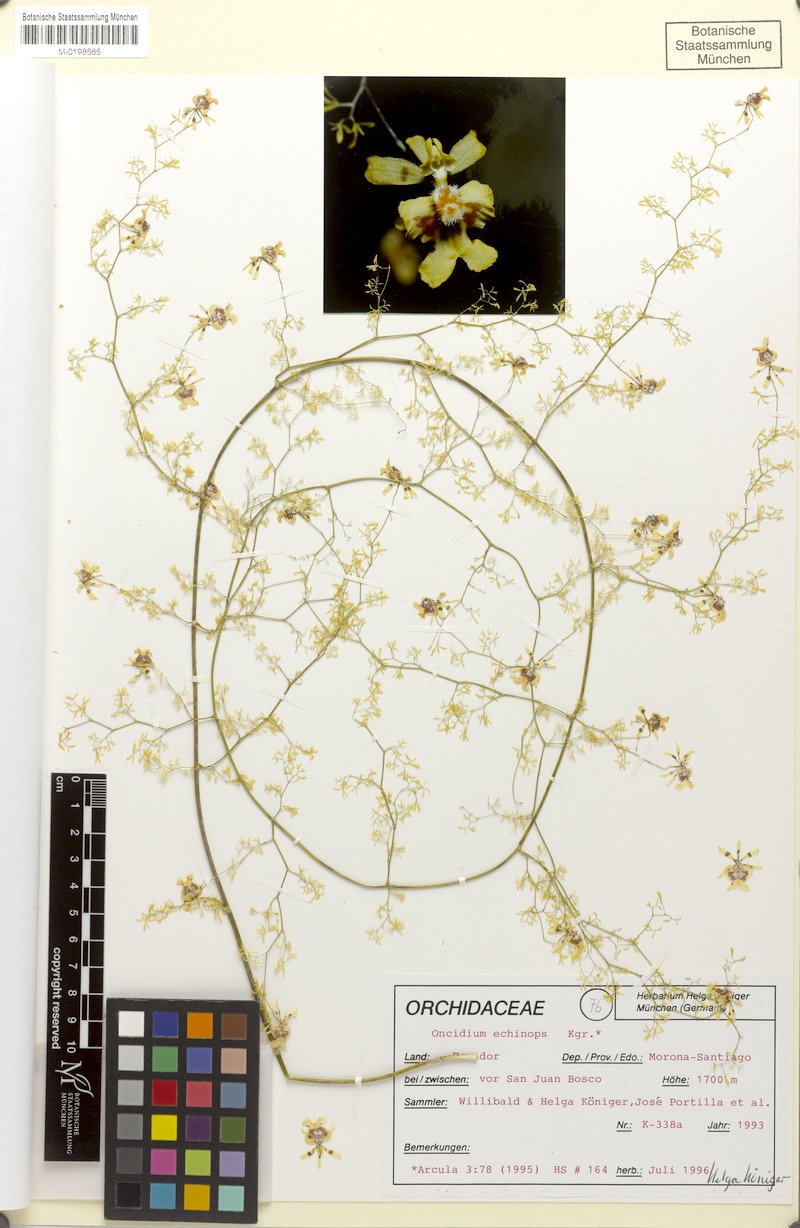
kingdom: Plantae
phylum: Tracheophyta
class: Liliopsida
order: Asparagales
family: Orchidaceae
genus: Oncidium
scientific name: Oncidium echinops
